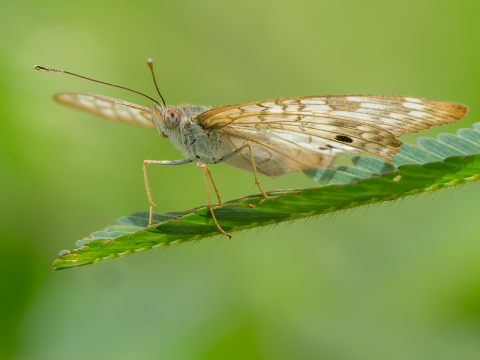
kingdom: Animalia
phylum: Arthropoda
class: Insecta
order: Lepidoptera
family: Nymphalidae
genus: Anartia
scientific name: Anartia jatrophae
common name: White Peacock
